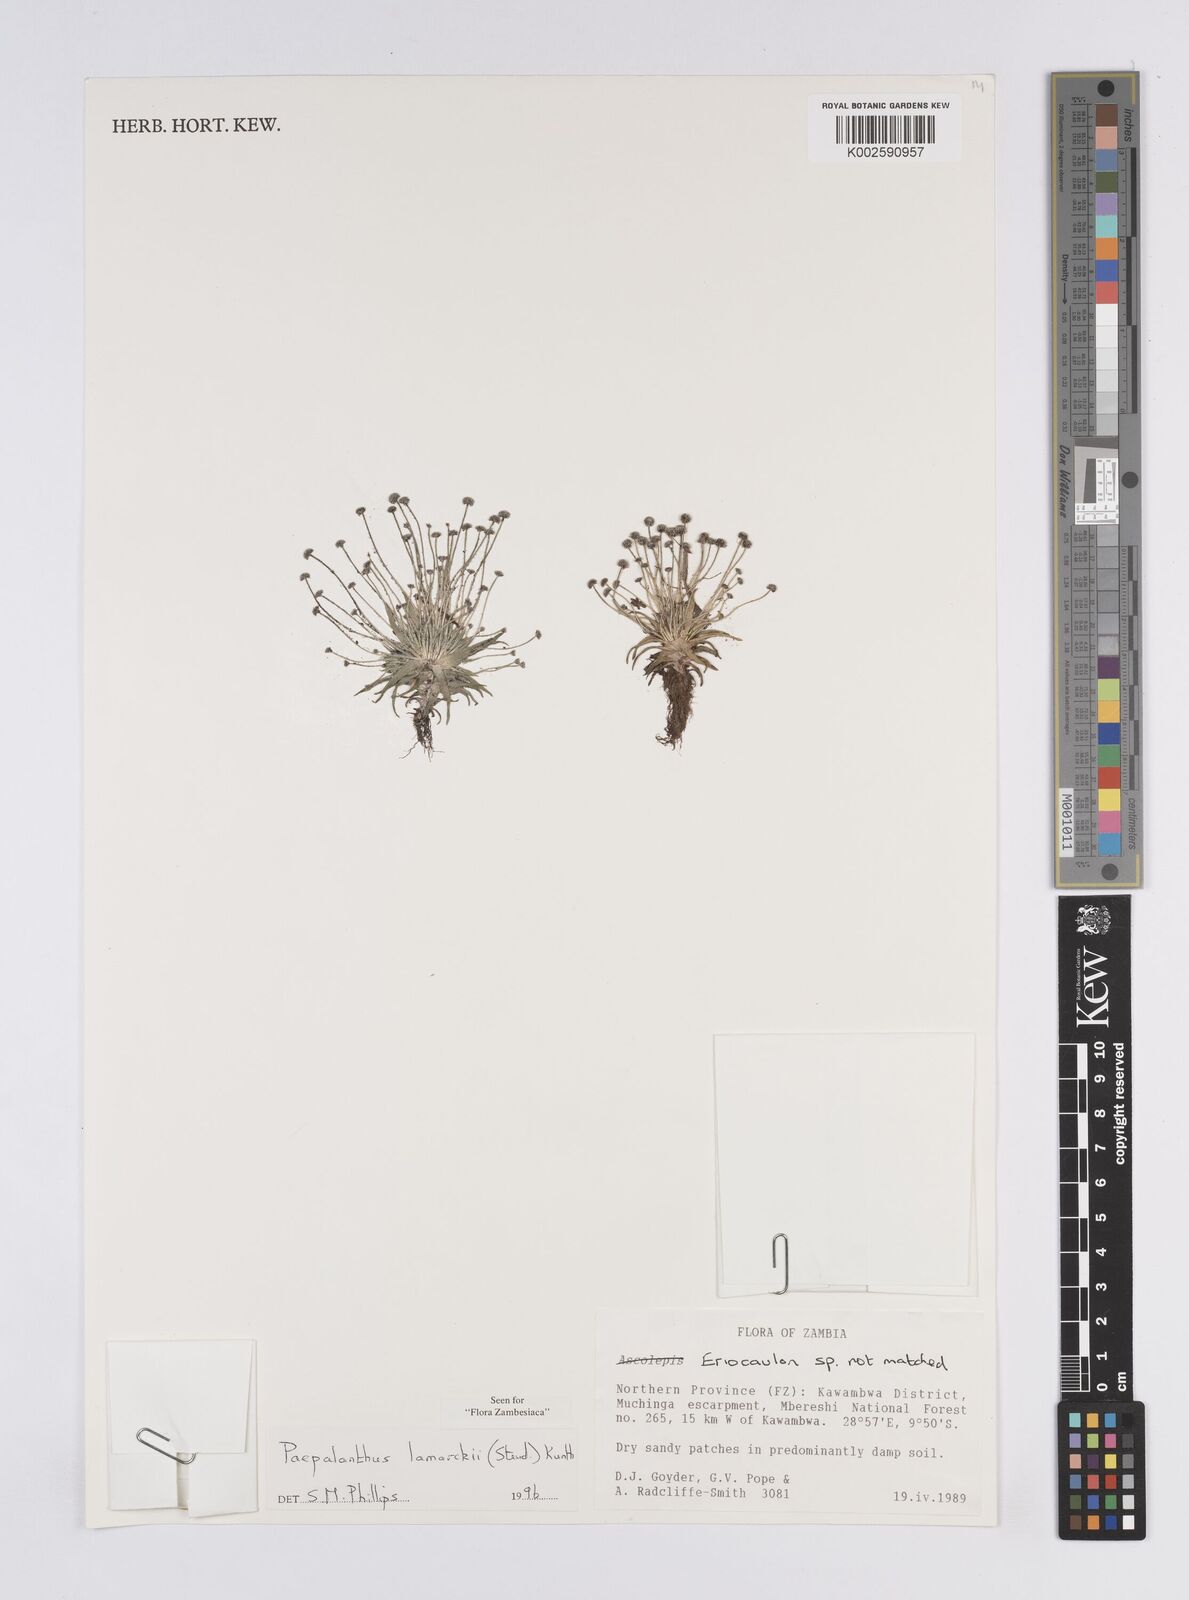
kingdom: Plantae
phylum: Tracheophyta
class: Liliopsida
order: Poales
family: Eriocaulaceae
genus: Paepalanthus
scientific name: Paepalanthus lamarckii
